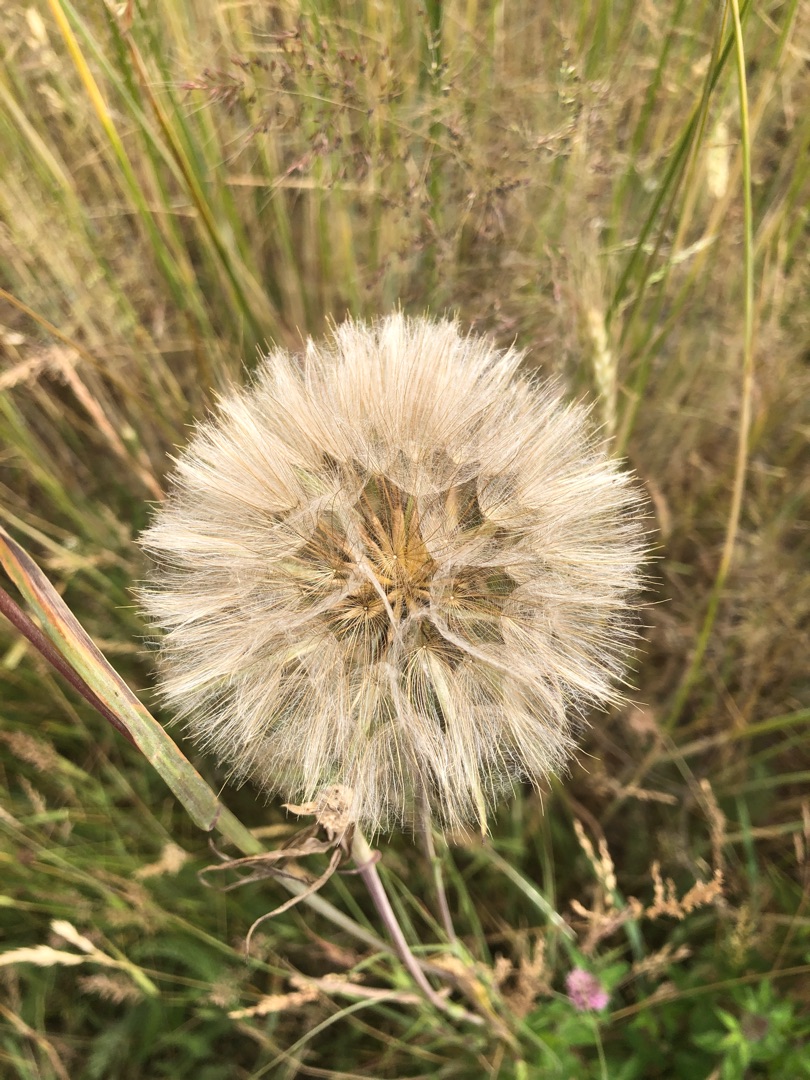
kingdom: Plantae
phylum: Tracheophyta
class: Magnoliopsida
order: Asterales
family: Asteraceae
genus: Tragopogon
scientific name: Tragopogon pratensis
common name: Gedeskæg
